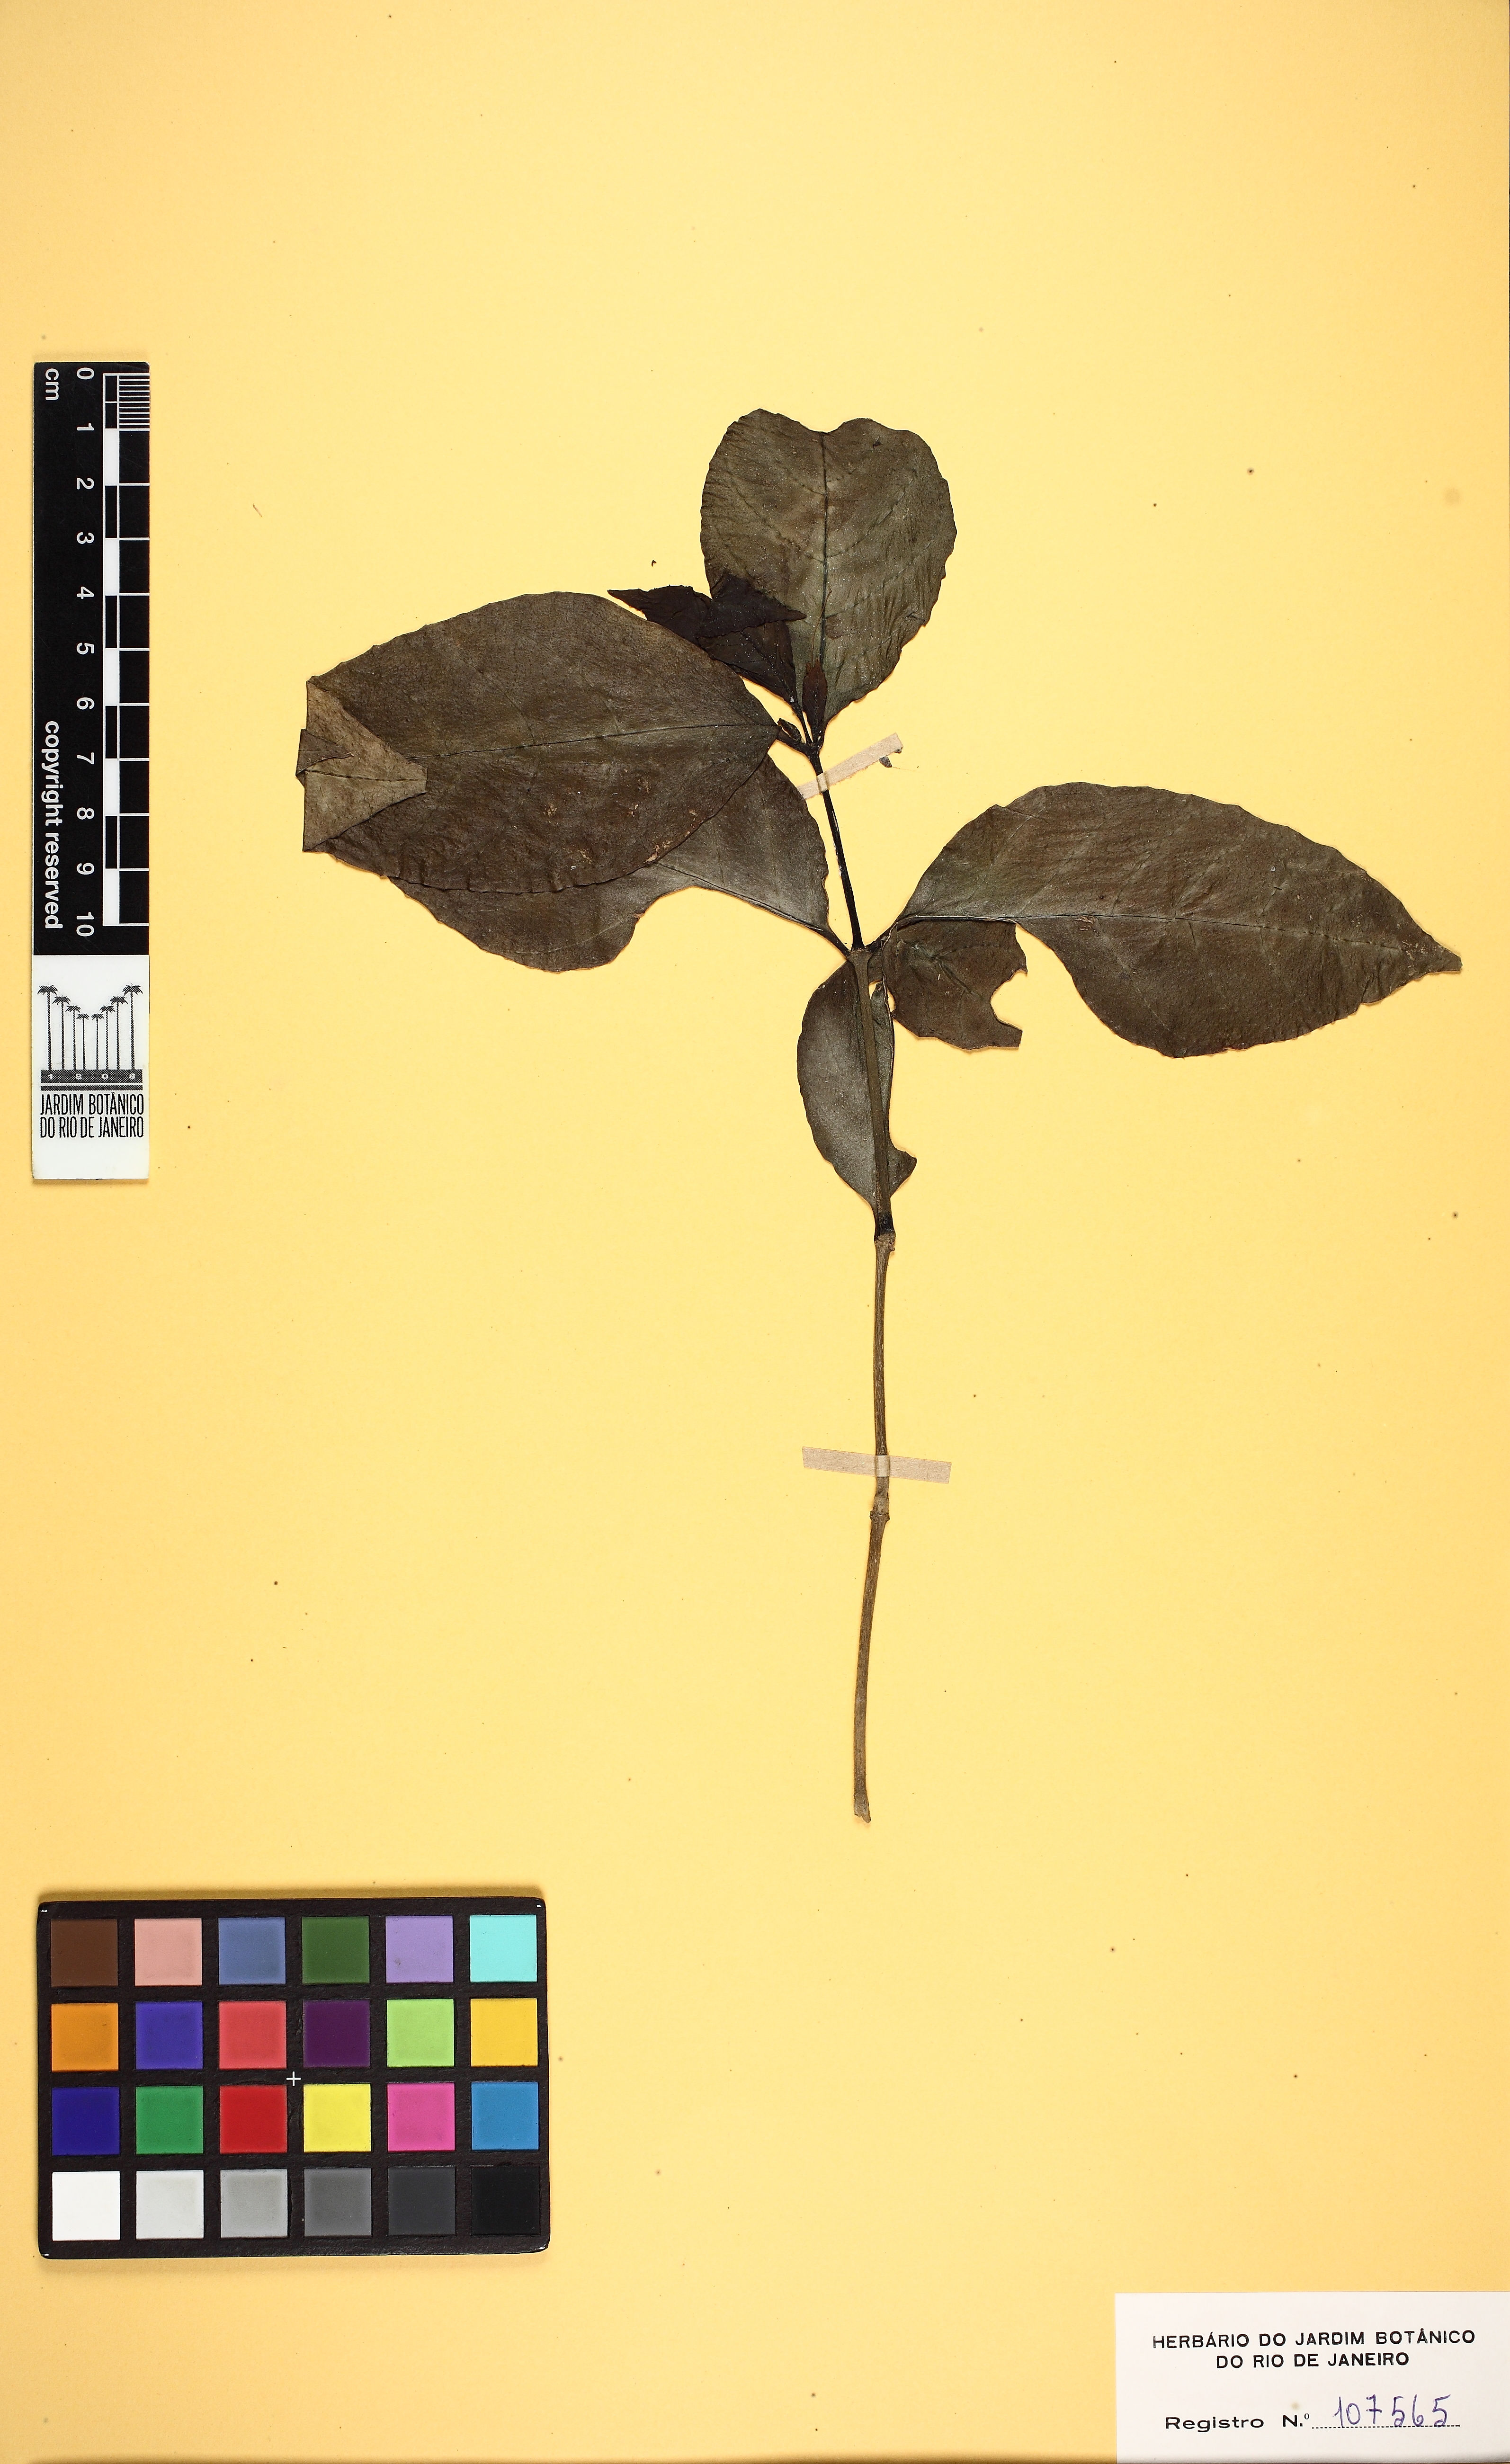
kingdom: Plantae
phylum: Tracheophyta
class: Magnoliopsida
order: Lamiales
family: Acanthaceae
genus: Ruellia
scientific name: Ruellia solitaria
